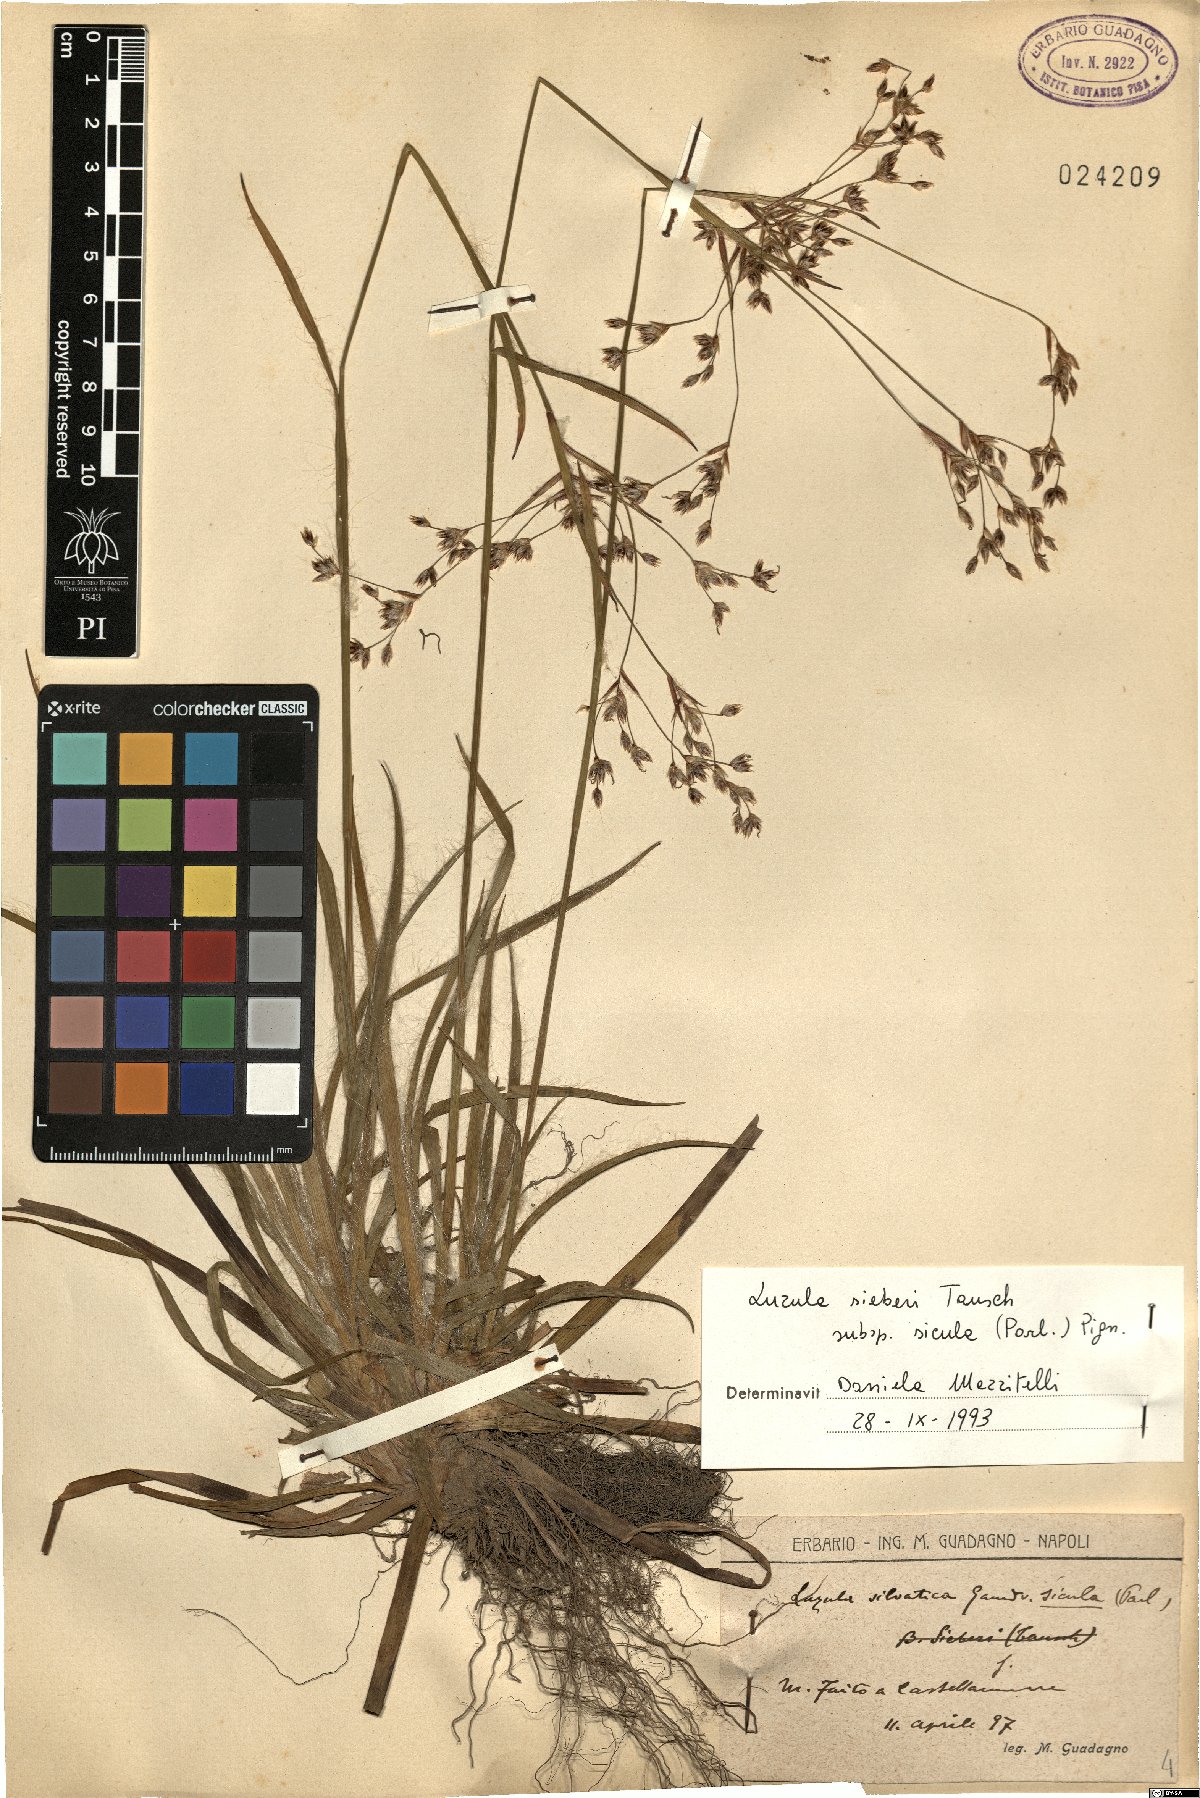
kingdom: Plantae
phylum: Tracheophyta
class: Liliopsida
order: Poales
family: Juncaceae
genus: Luzula
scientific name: Luzula sylvatica
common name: Great wood-rush
